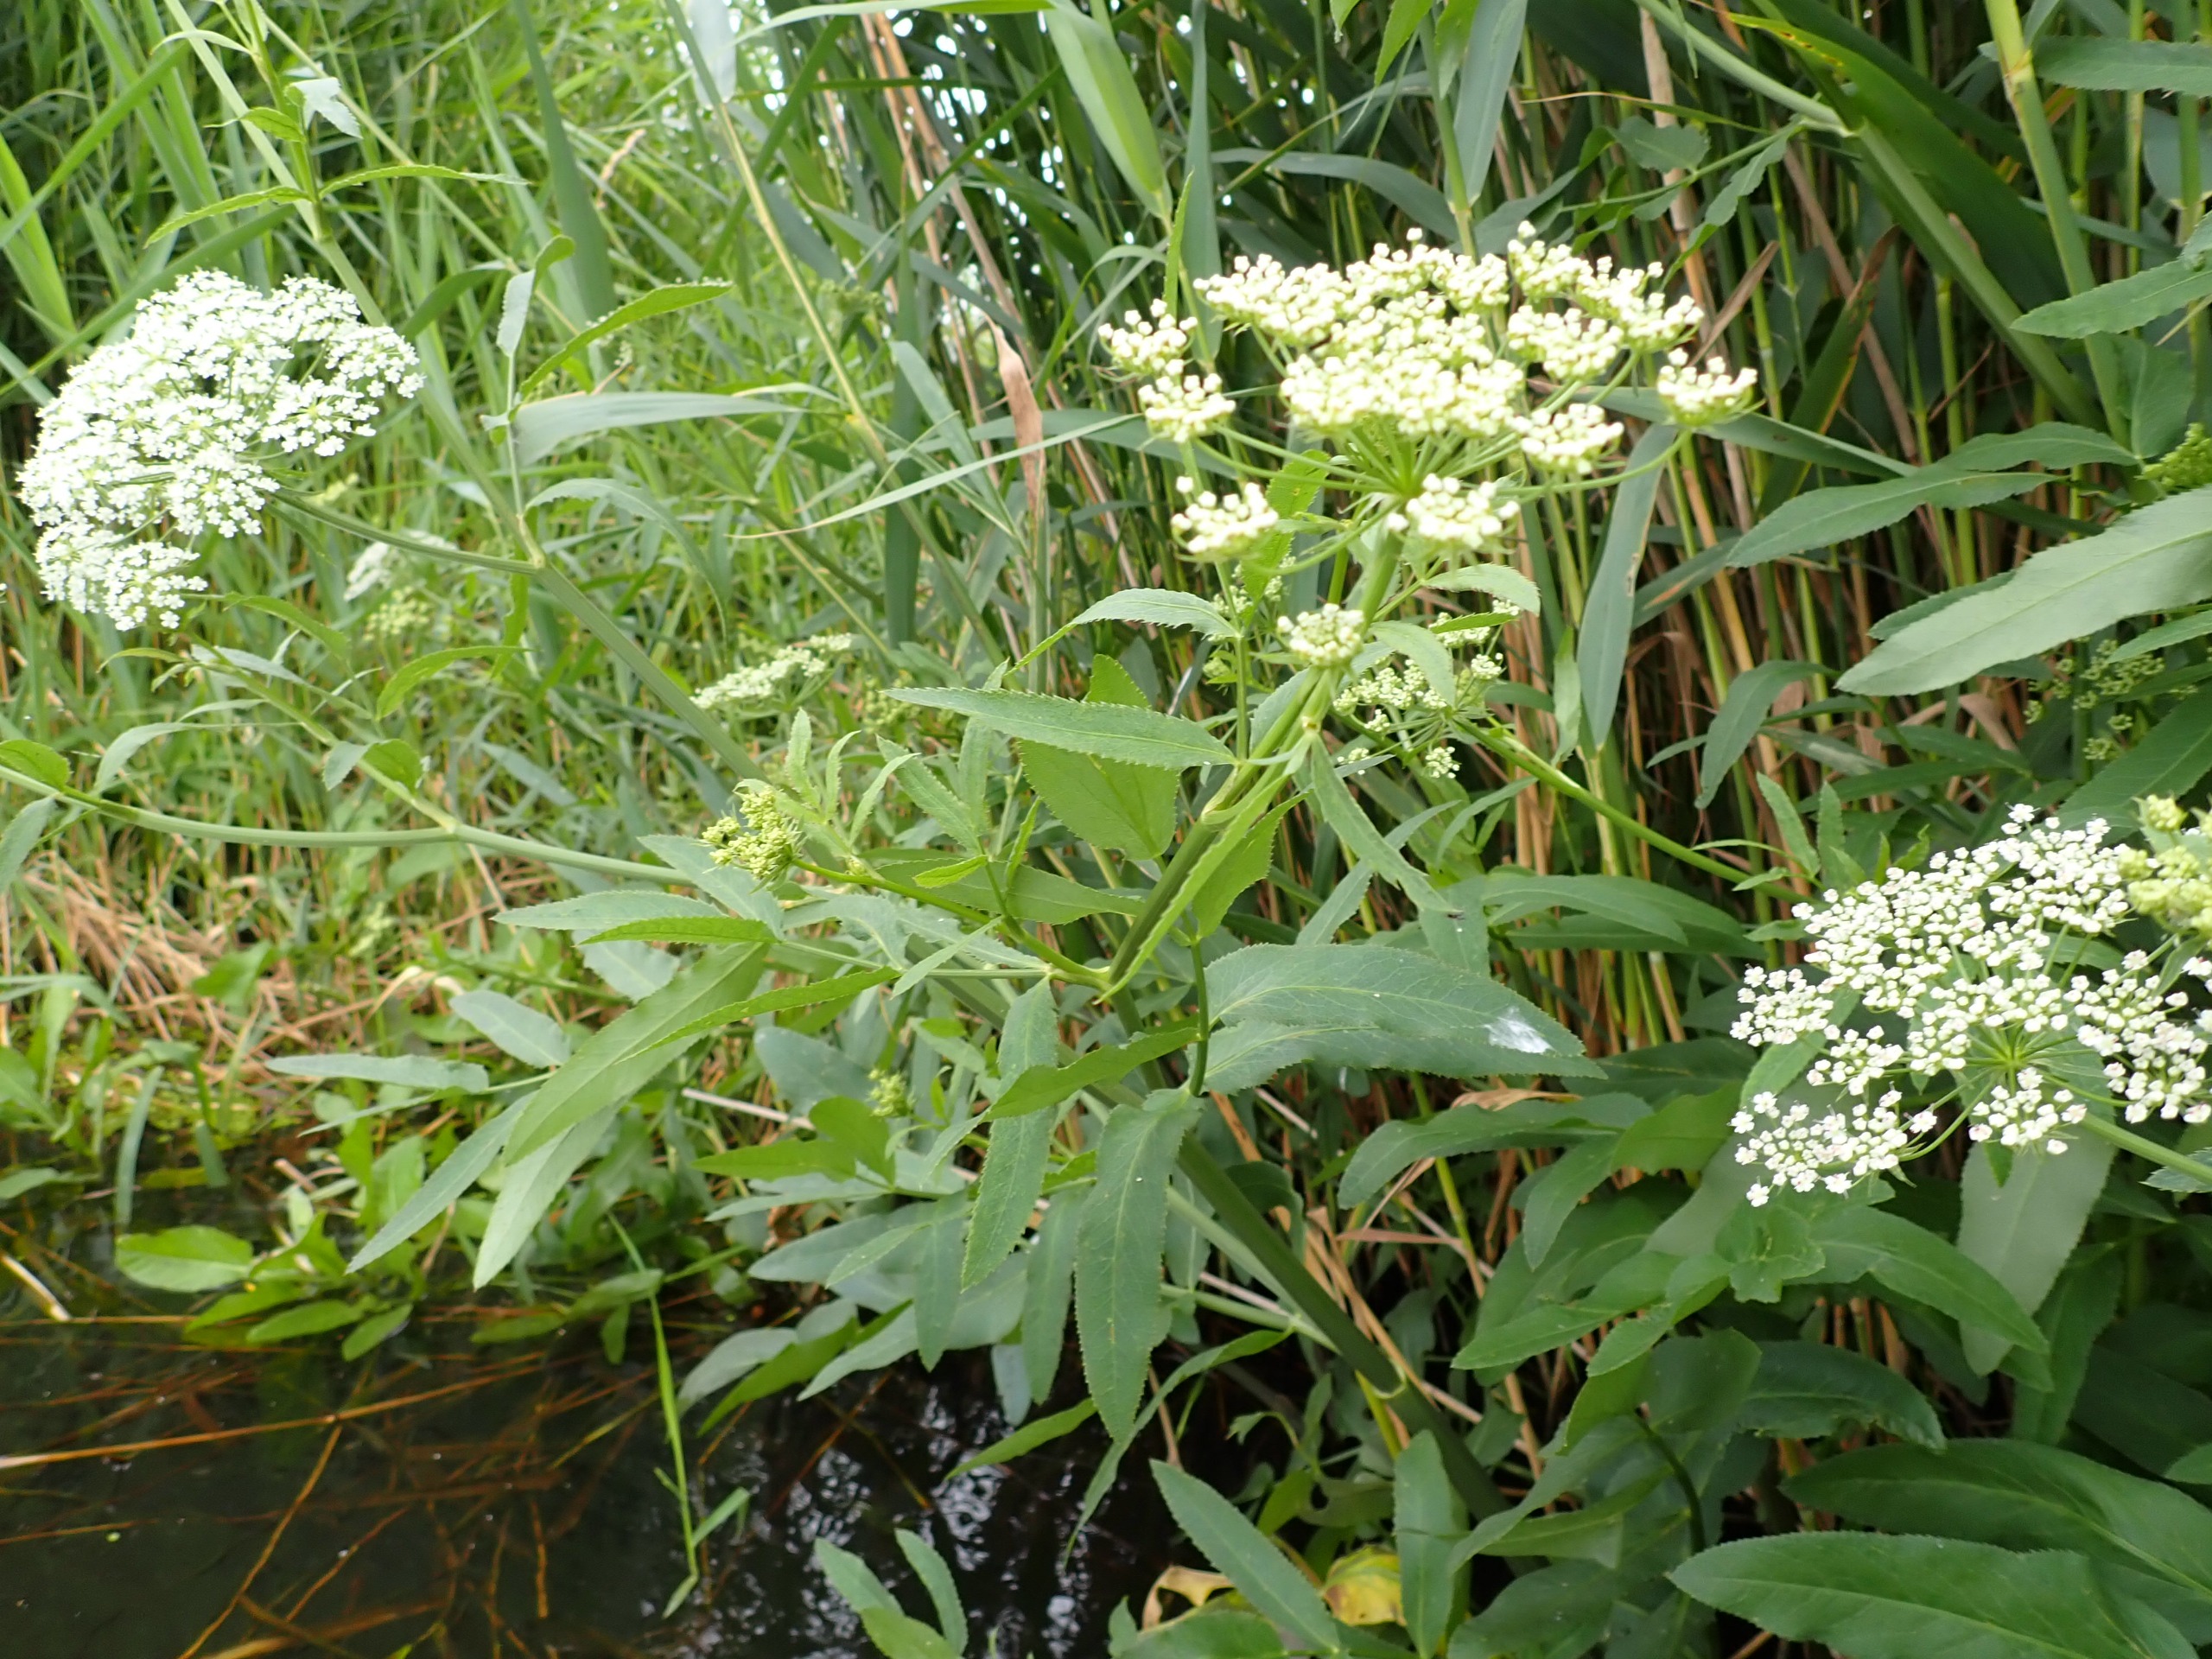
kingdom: Plantae
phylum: Tracheophyta
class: Magnoliopsida
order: Apiales
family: Apiaceae
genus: Sium
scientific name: Sium latifolium
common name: Bredbladet mærke
